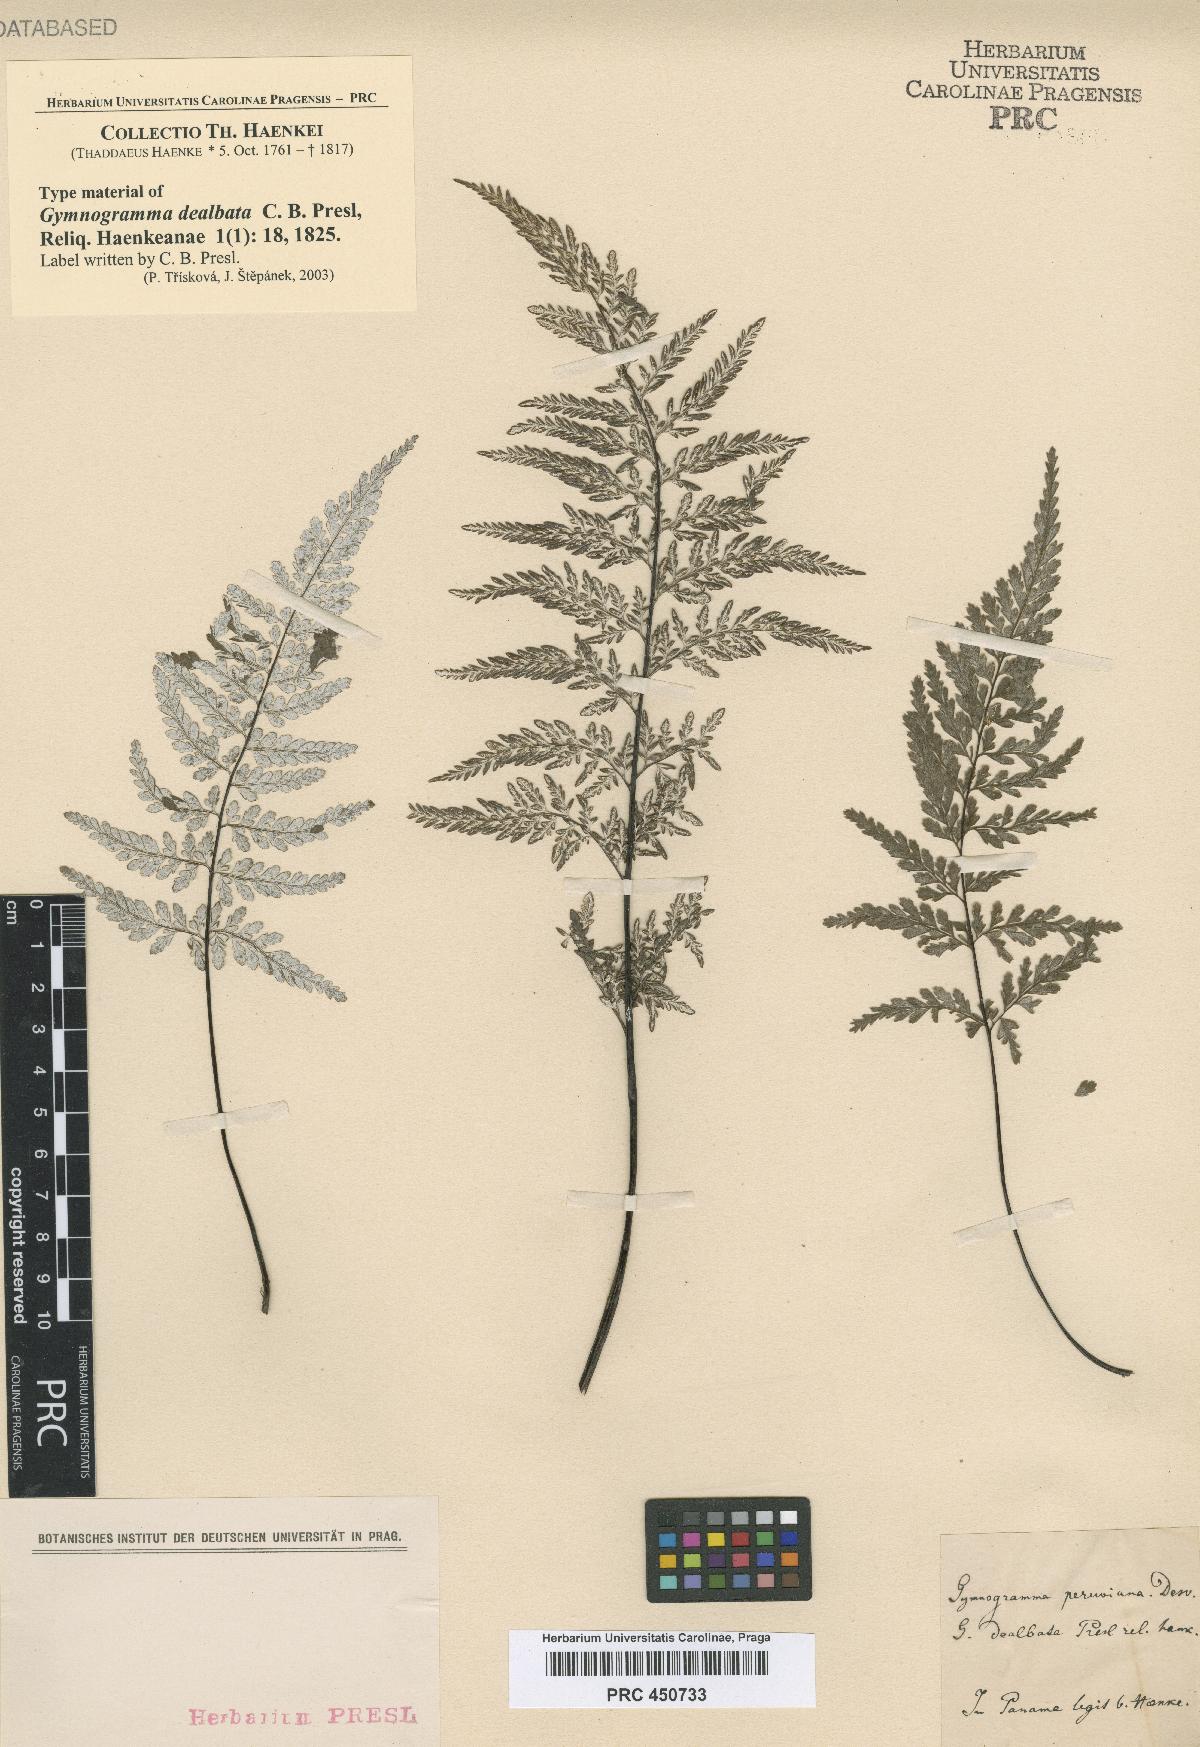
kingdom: Plantae
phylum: Tracheophyta
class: Polypodiopsida
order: Polypodiales
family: Pteridaceae
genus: Pityrogramma
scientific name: Pityrogramma dealbata
